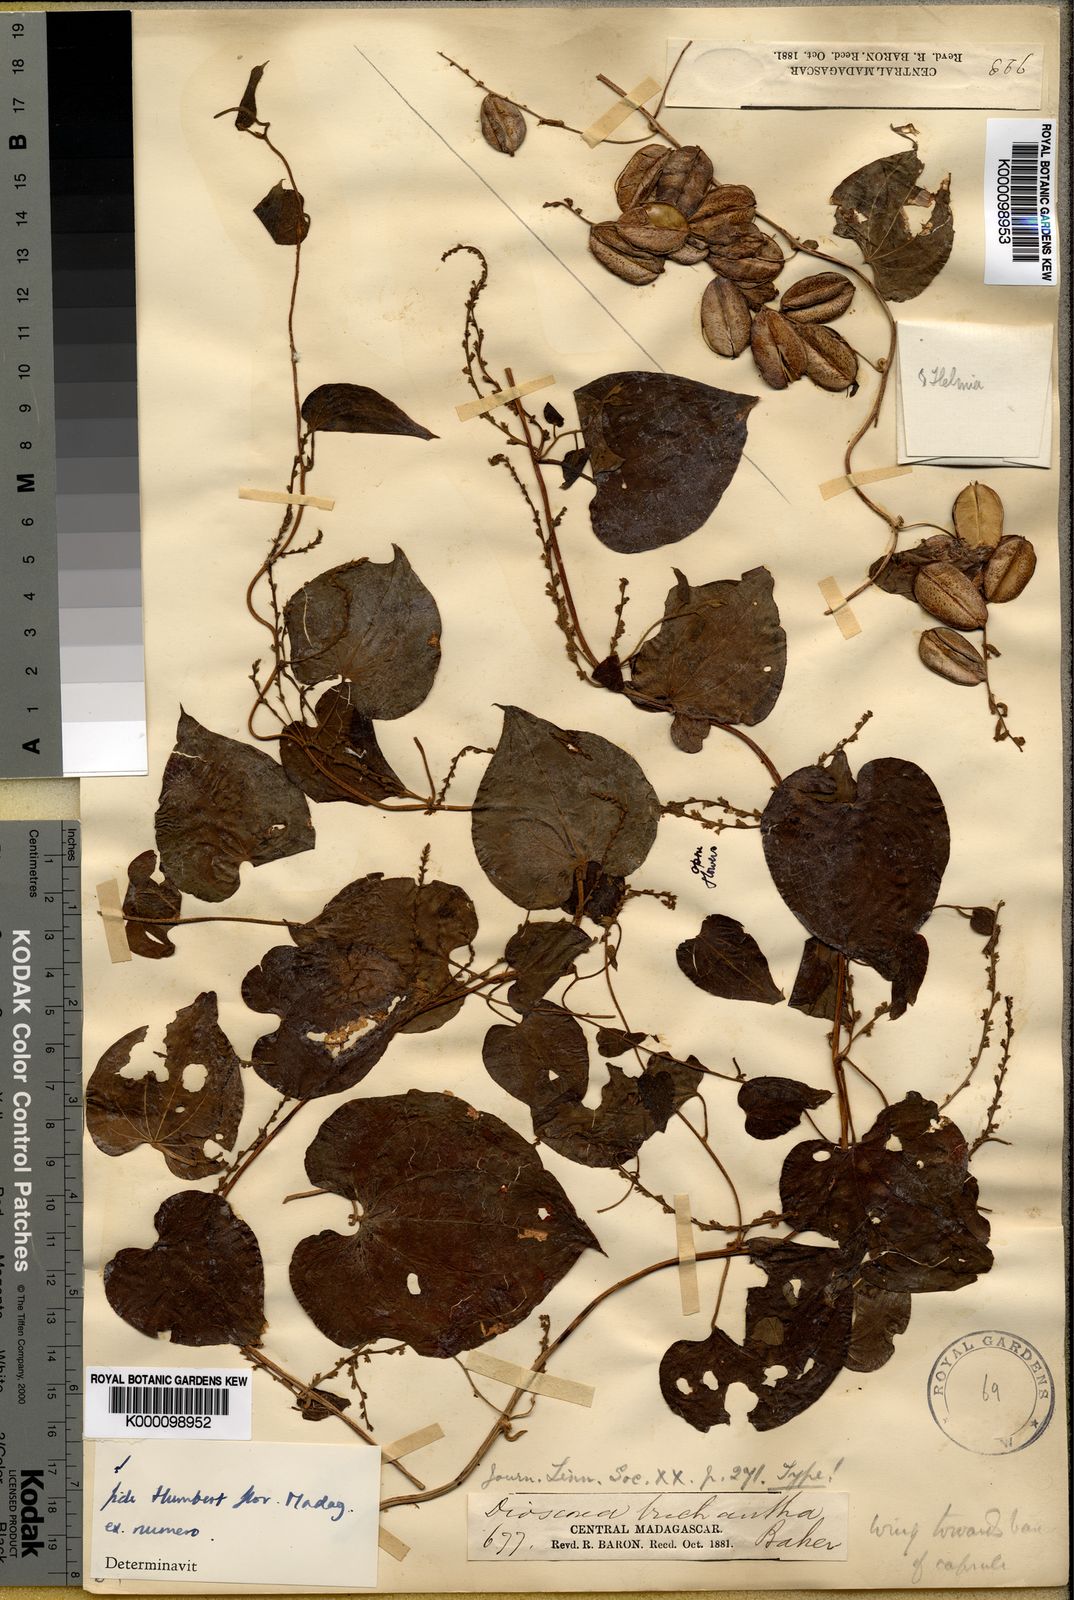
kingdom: Plantae
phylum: Tracheophyta
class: Liliopsida
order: Dioscoreales
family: Dioscoreaceae
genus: Dioscorea
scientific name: Dioscorea trichantha
